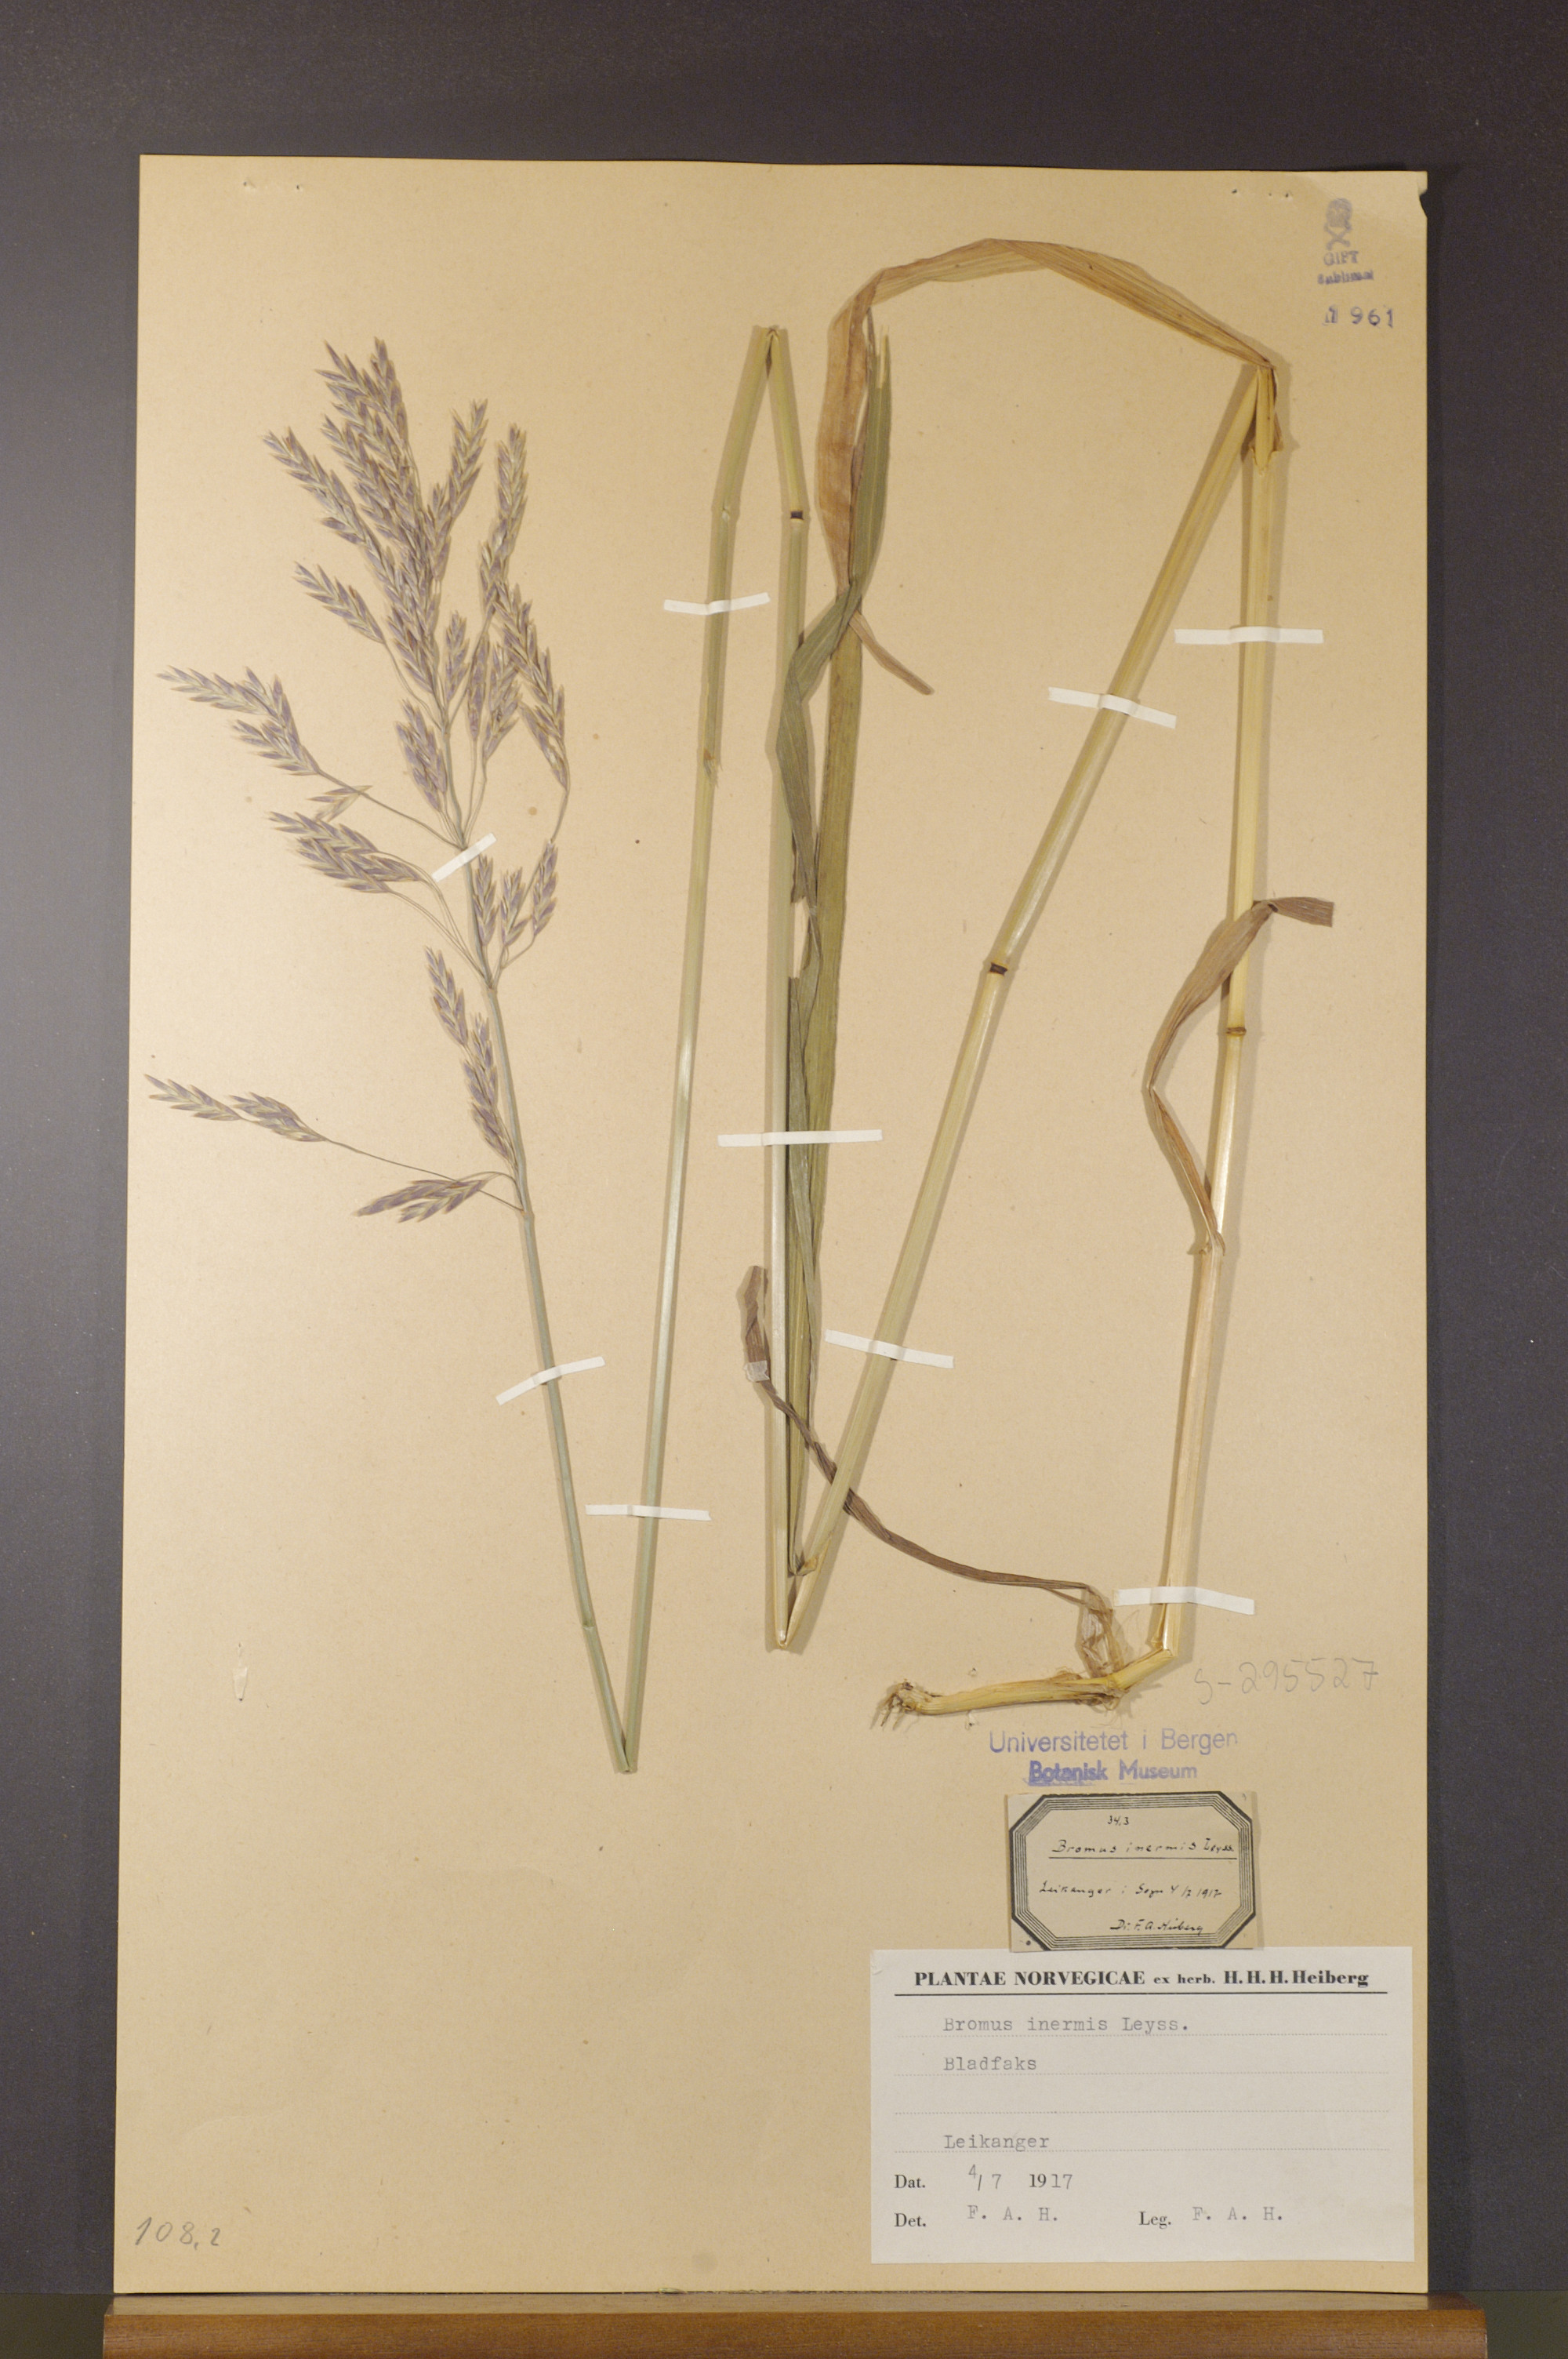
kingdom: Plantae
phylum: Tracheophyta
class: Liliopsida
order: Poales
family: Poaceae
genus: Bromus
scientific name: Bromus inermis
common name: Smooth brome
